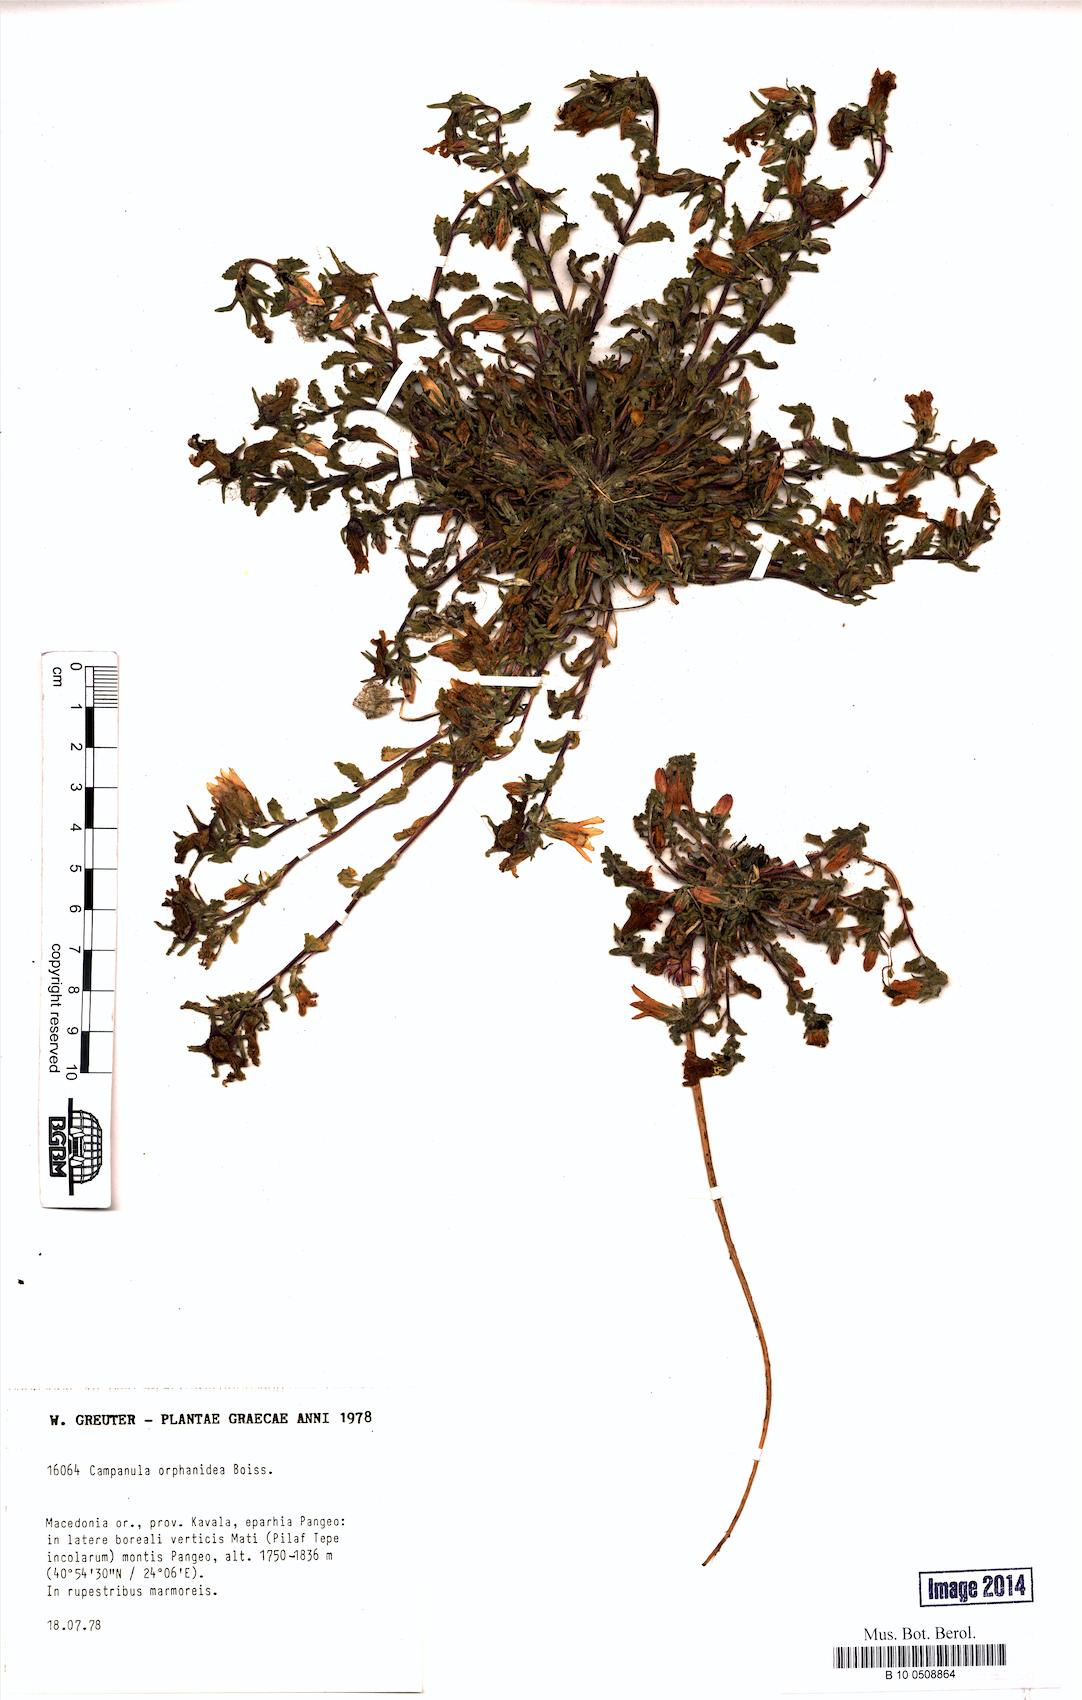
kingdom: Plantae
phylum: Tracheophyta
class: Magnoliopsida
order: Asterales
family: Campanulaceae
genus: Campanula
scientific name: Campanula orphanidea
